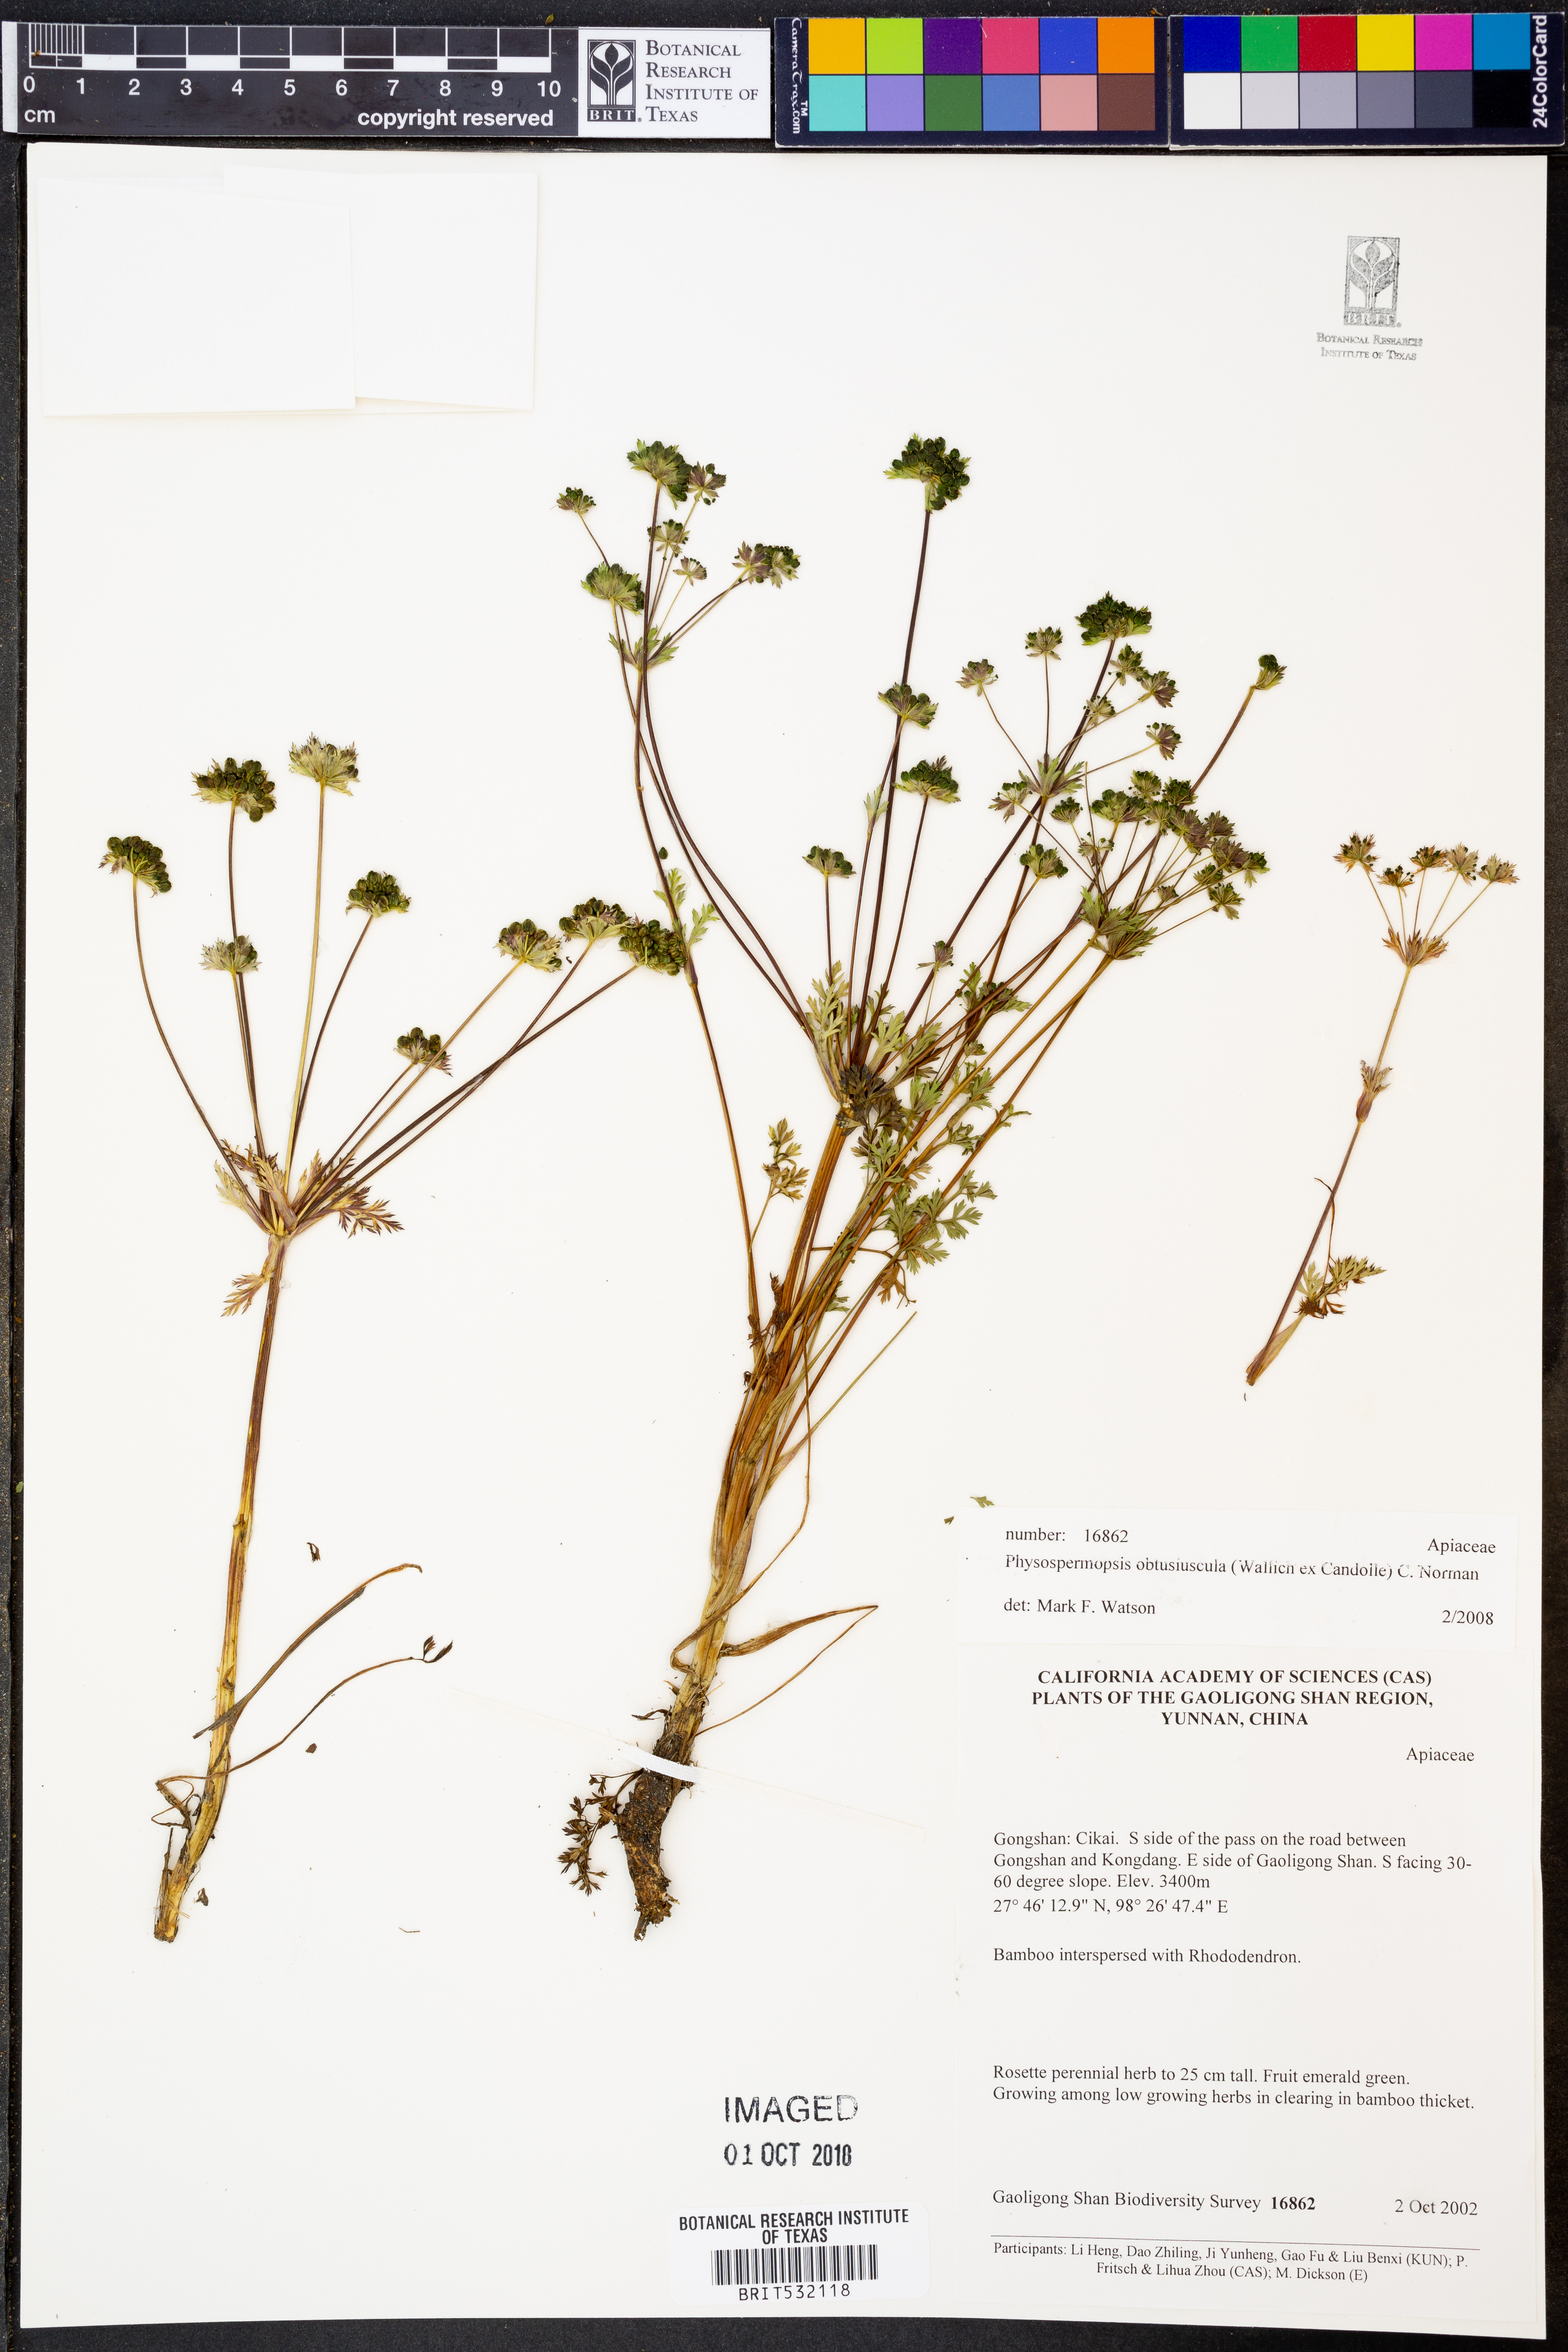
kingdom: Plantae
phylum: Tracheophyta
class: Magnoliopsida
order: Apiales
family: Apiaceae
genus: Physospermopsis
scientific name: Physospermopsis obtusiuscula
